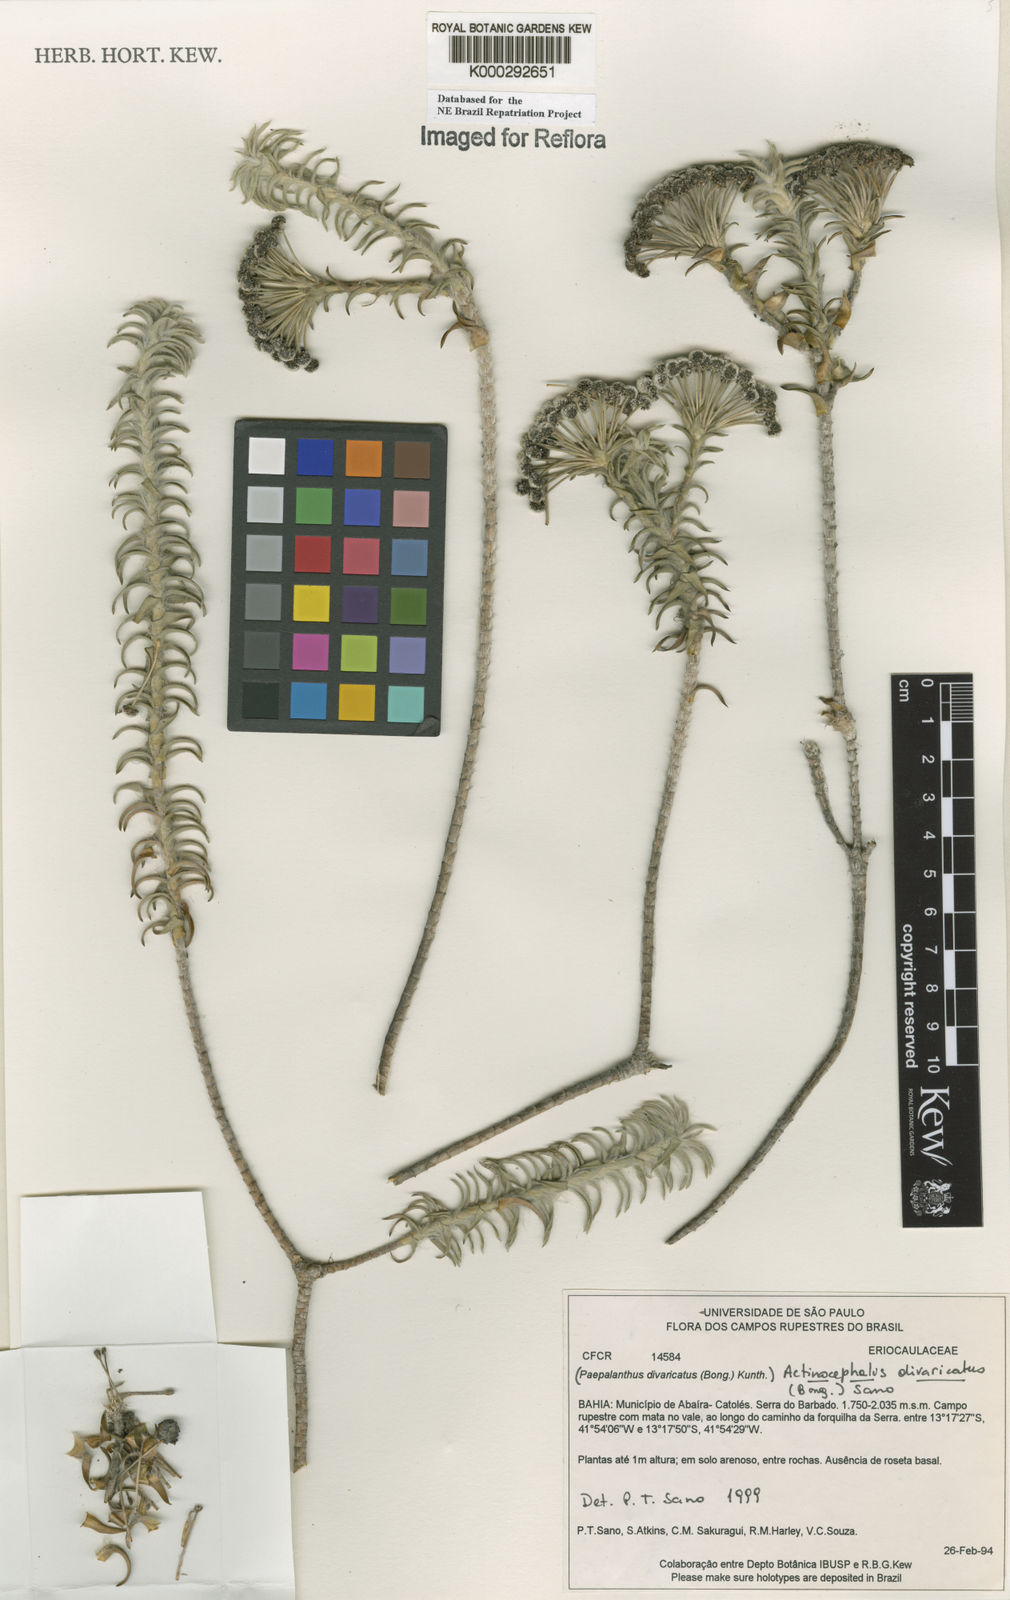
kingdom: Plantae
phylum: Tracheophyta
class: Liliopsida
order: Poales
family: Eriocaulaceae
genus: Paepalanthus
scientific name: Paepalanthus divaricatus
